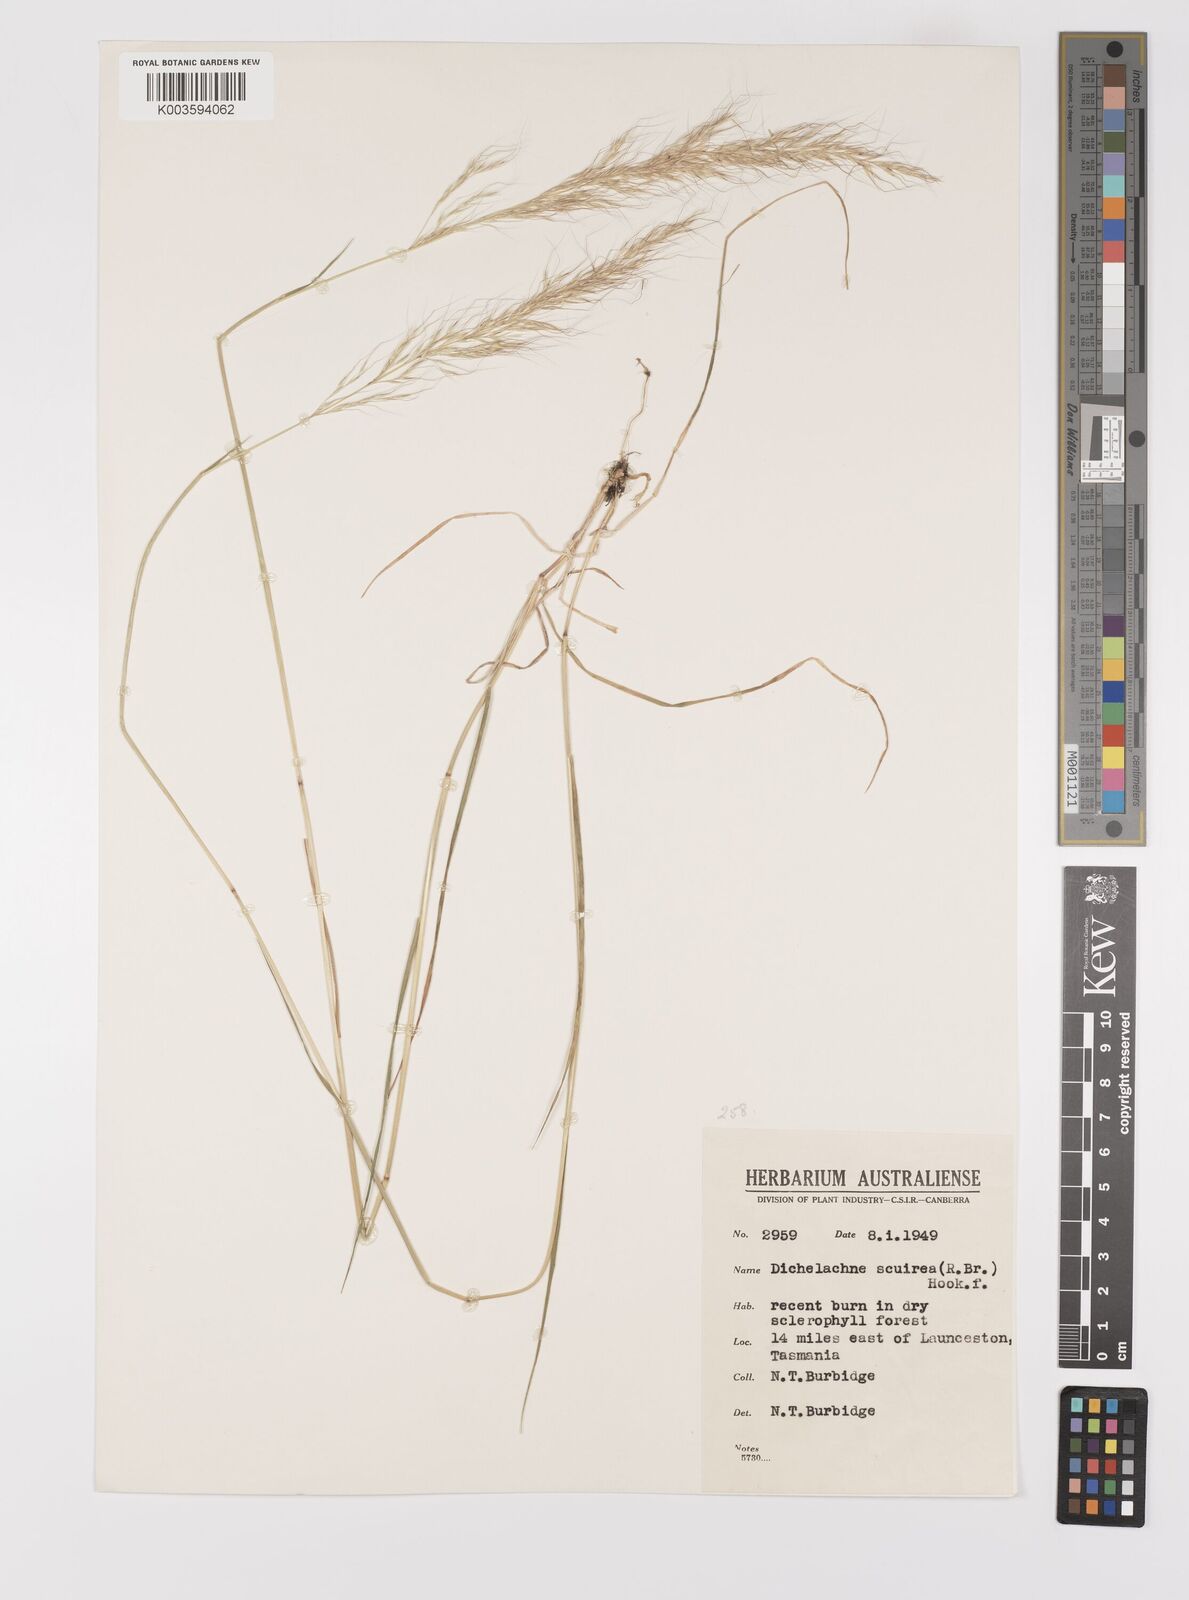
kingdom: Plantae
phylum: Tracheophyta
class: Liliopsida
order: Poales
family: Poaceae
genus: Dichelachne
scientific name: Dichelachne rara
